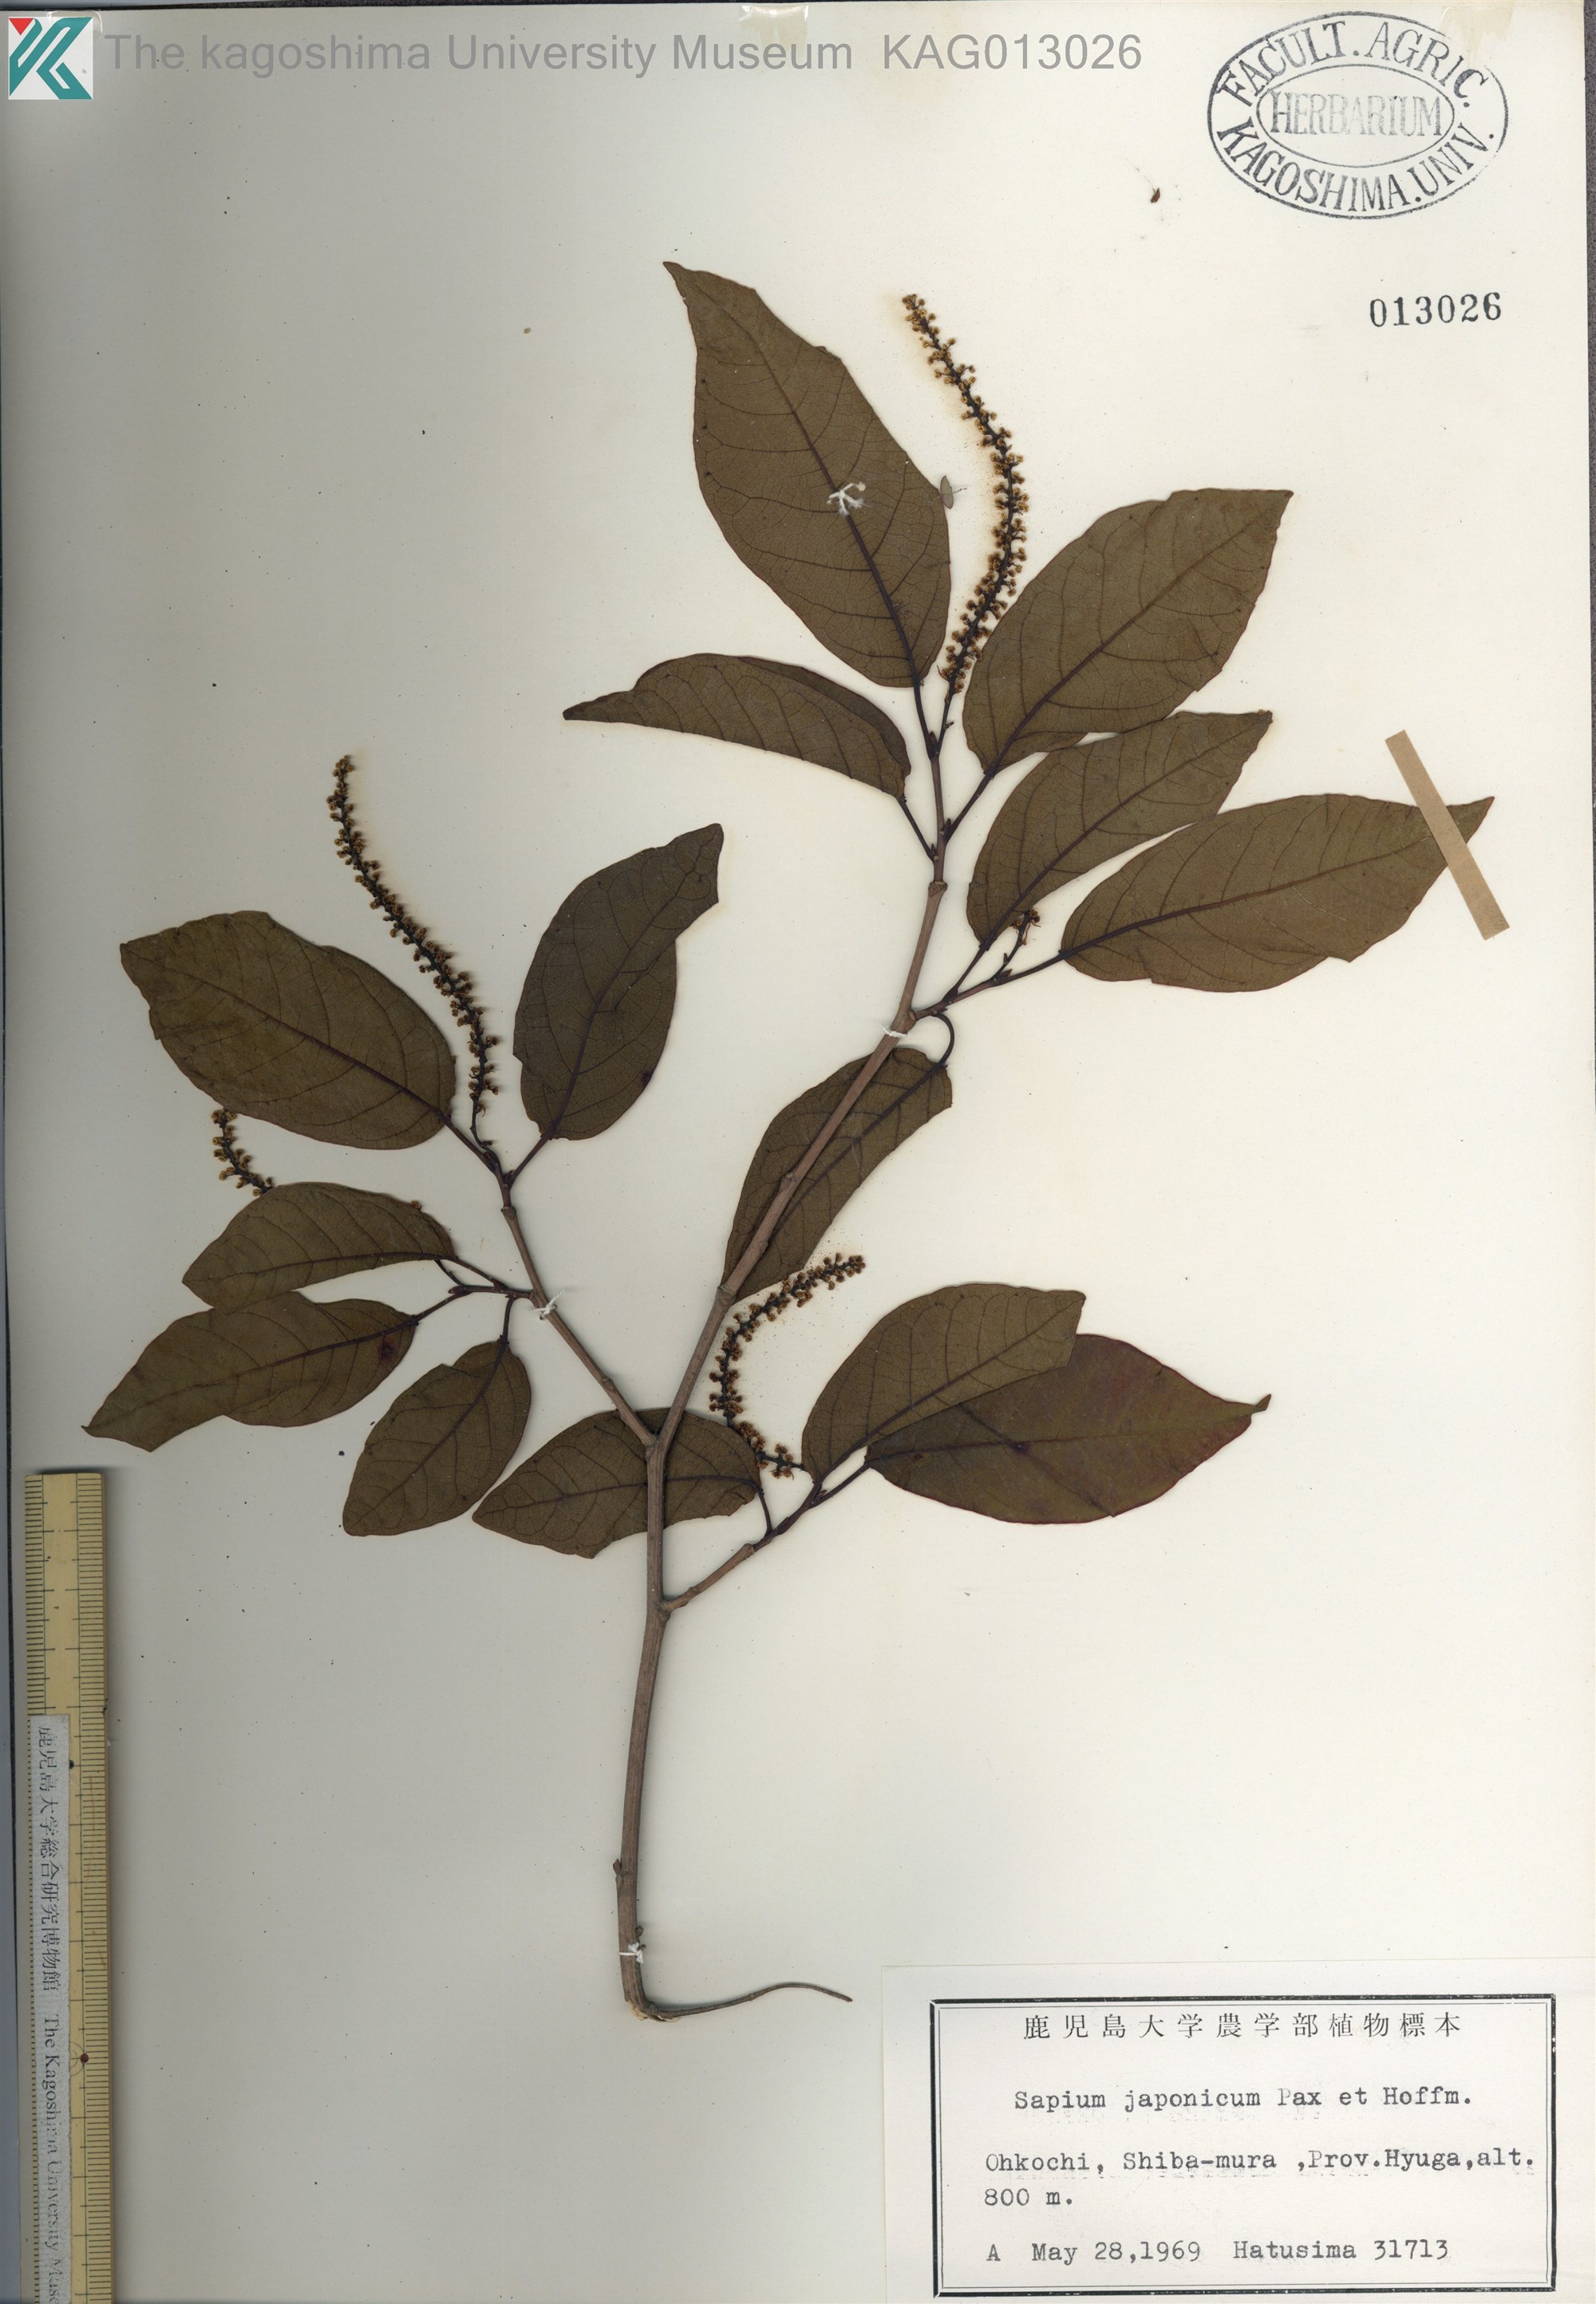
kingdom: Plantae
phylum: Tracheophyta
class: Magnoliopsida
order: Malpighiales
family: Euphorbiaceae
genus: Neoshirakia
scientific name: Neoshirakia japonica
